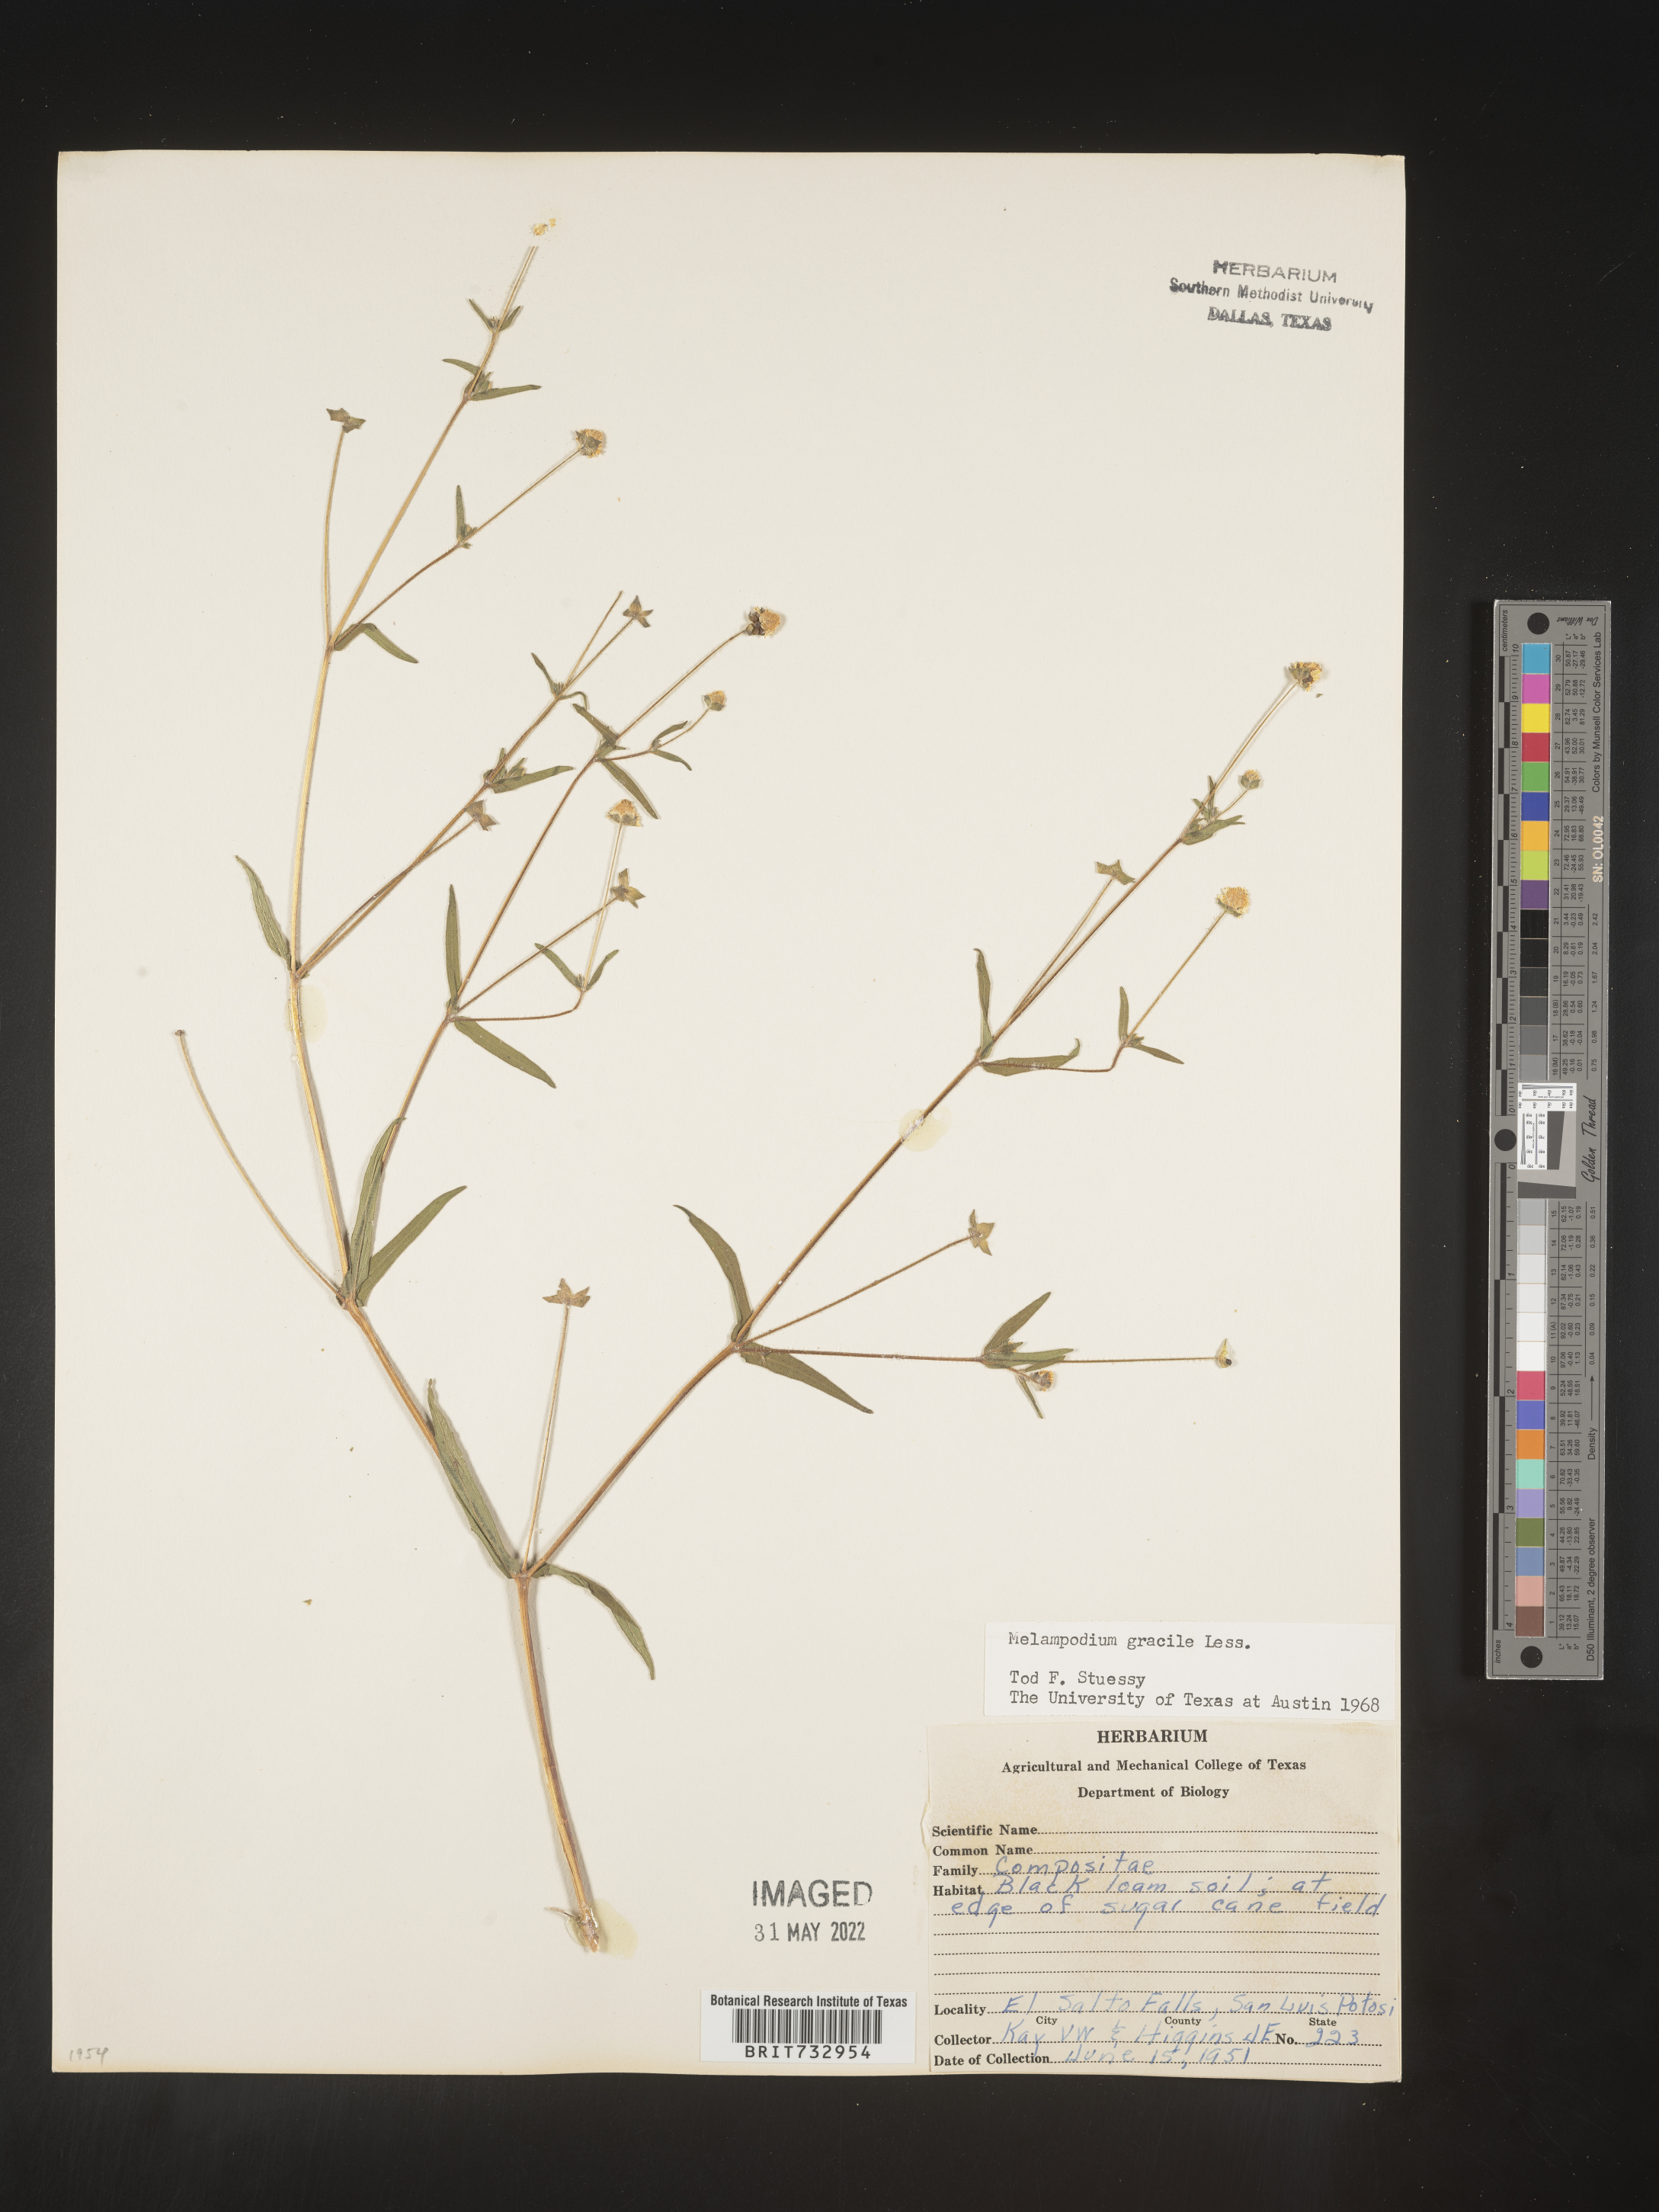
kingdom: Plantae
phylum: Tracheophyta
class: Magnoliopsida
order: Asterales
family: Asteraceae
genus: Melampodium
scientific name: Melampodium gracile
